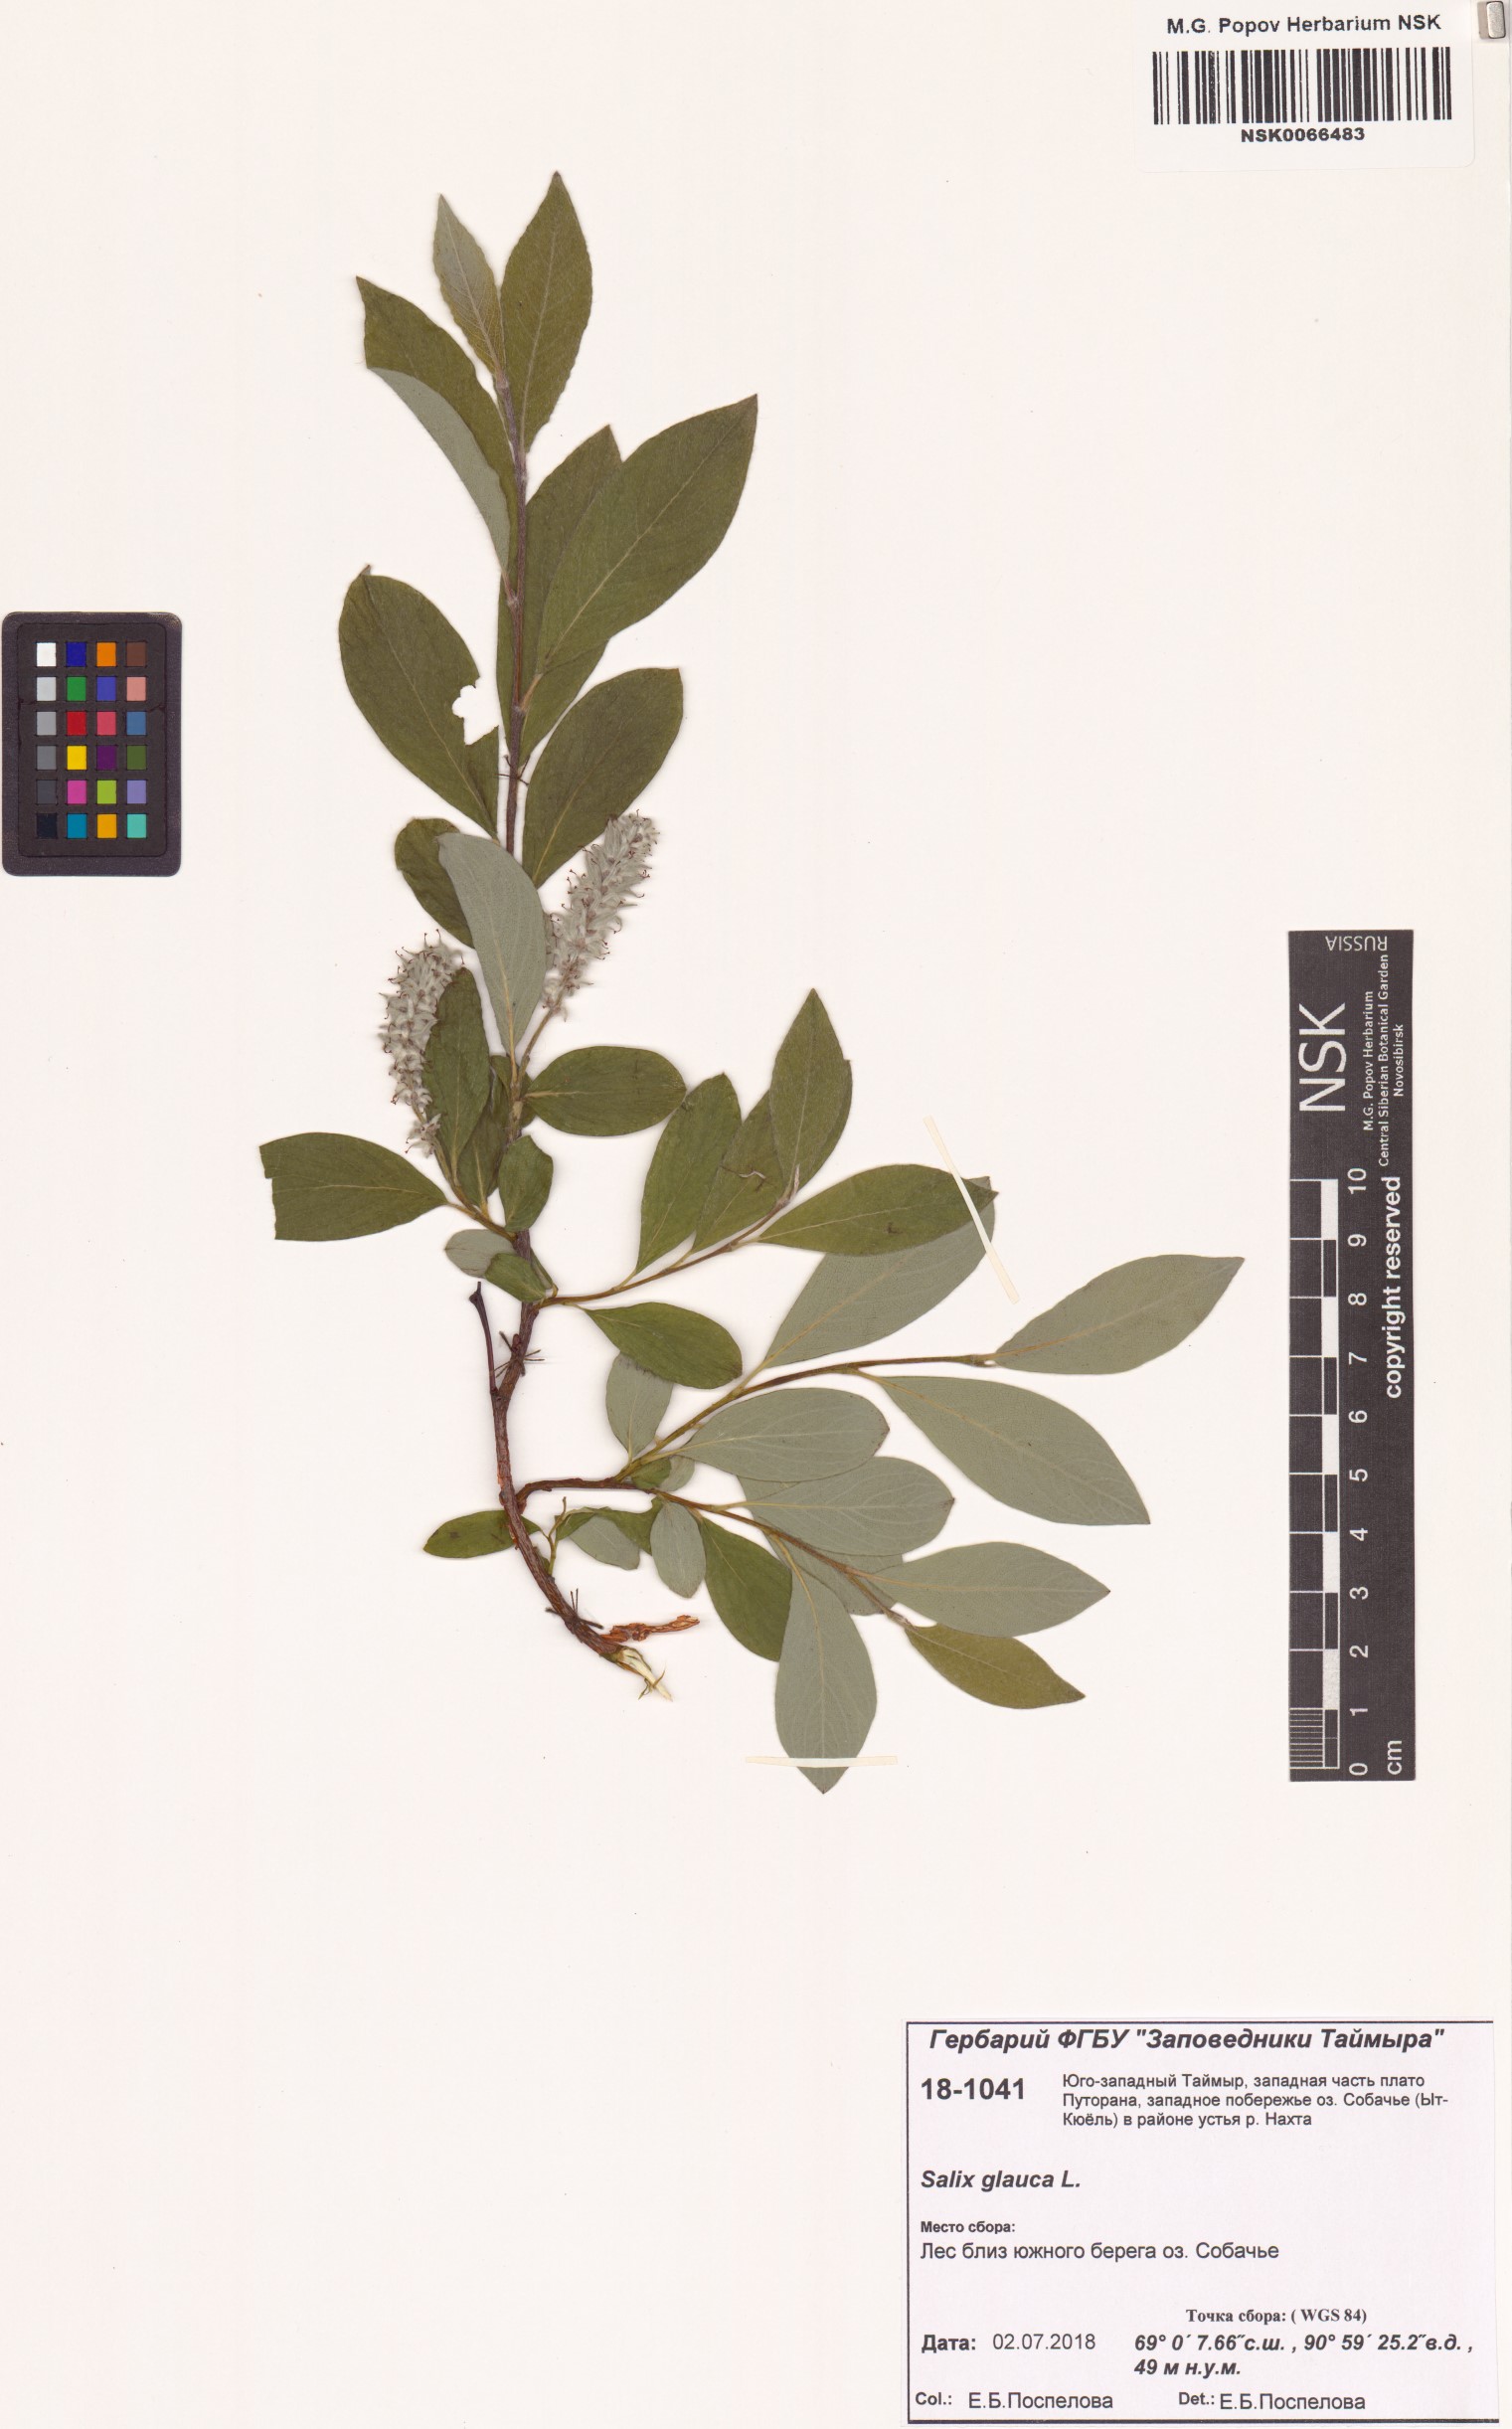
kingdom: Plantae
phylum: Tracheophyta
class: Magnoliopsida
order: Malpighiales
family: Salicaceae
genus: Salix
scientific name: Salix glauca
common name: Glaucous willow
